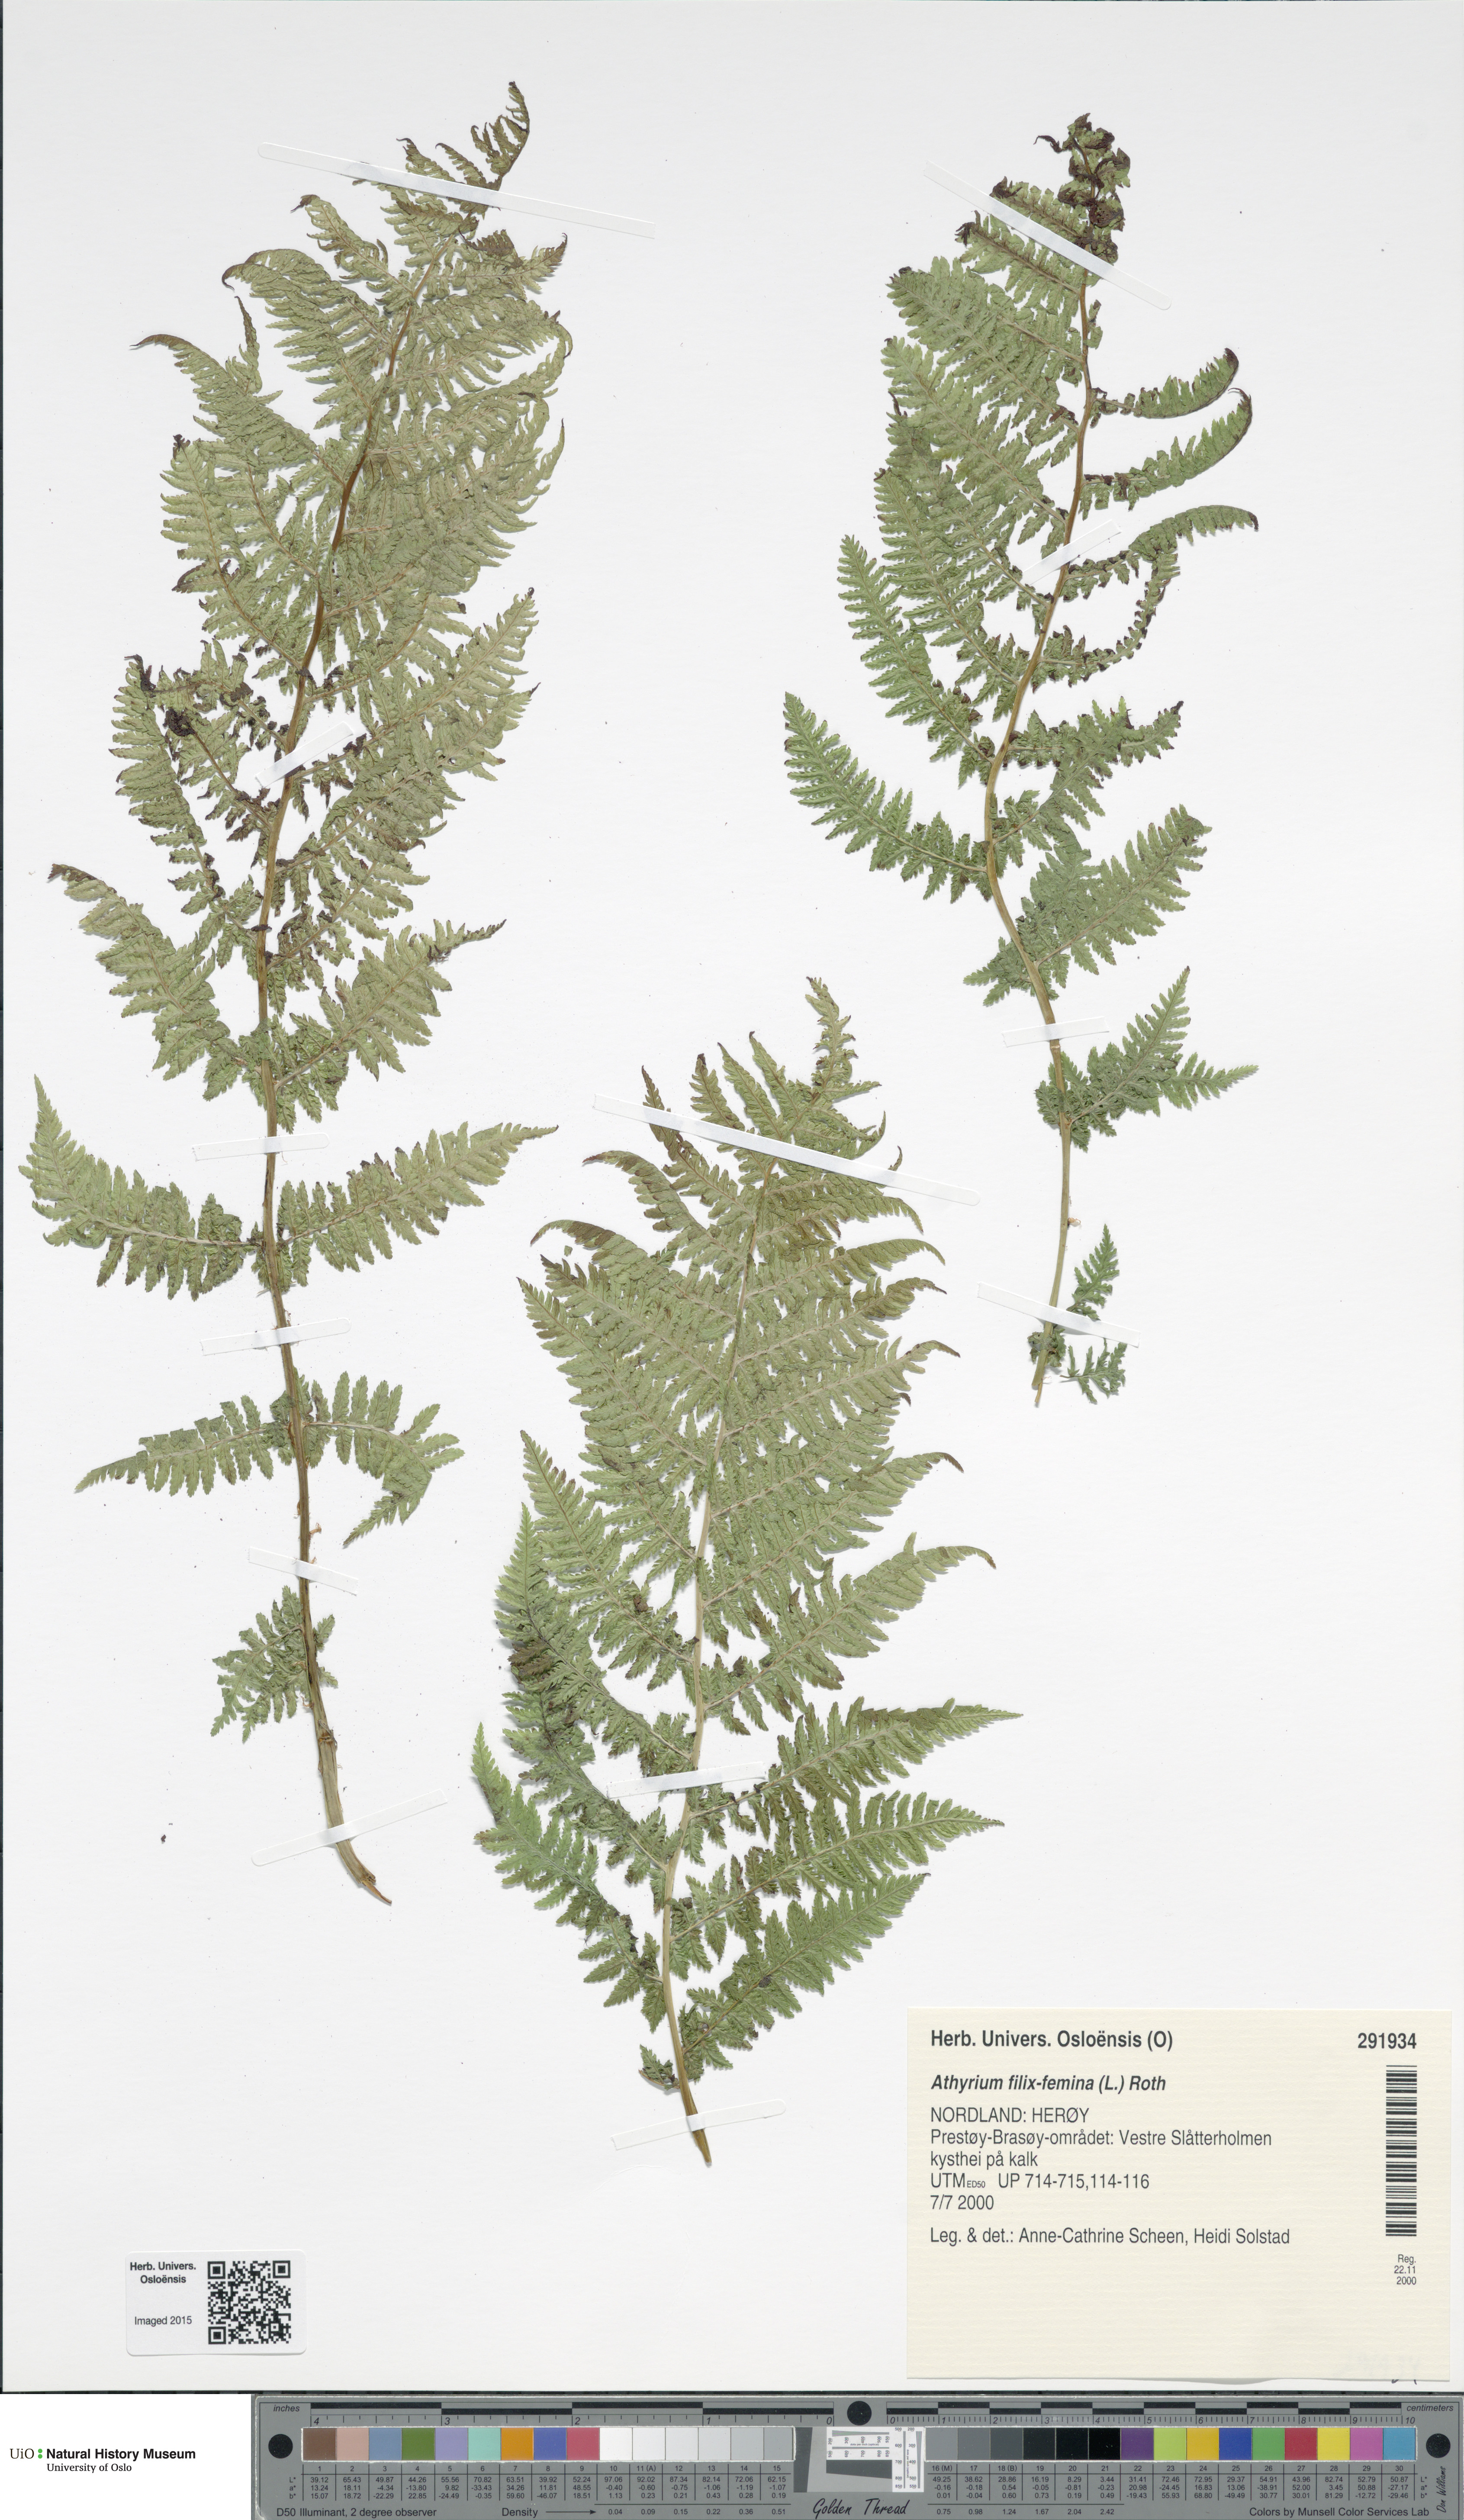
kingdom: Plantae
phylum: Tracheophyta
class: Polypodiopsida
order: Polypodiales
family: Athyriaceae
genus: Athyrium
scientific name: Athyrium filix-femina
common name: Lady fern
